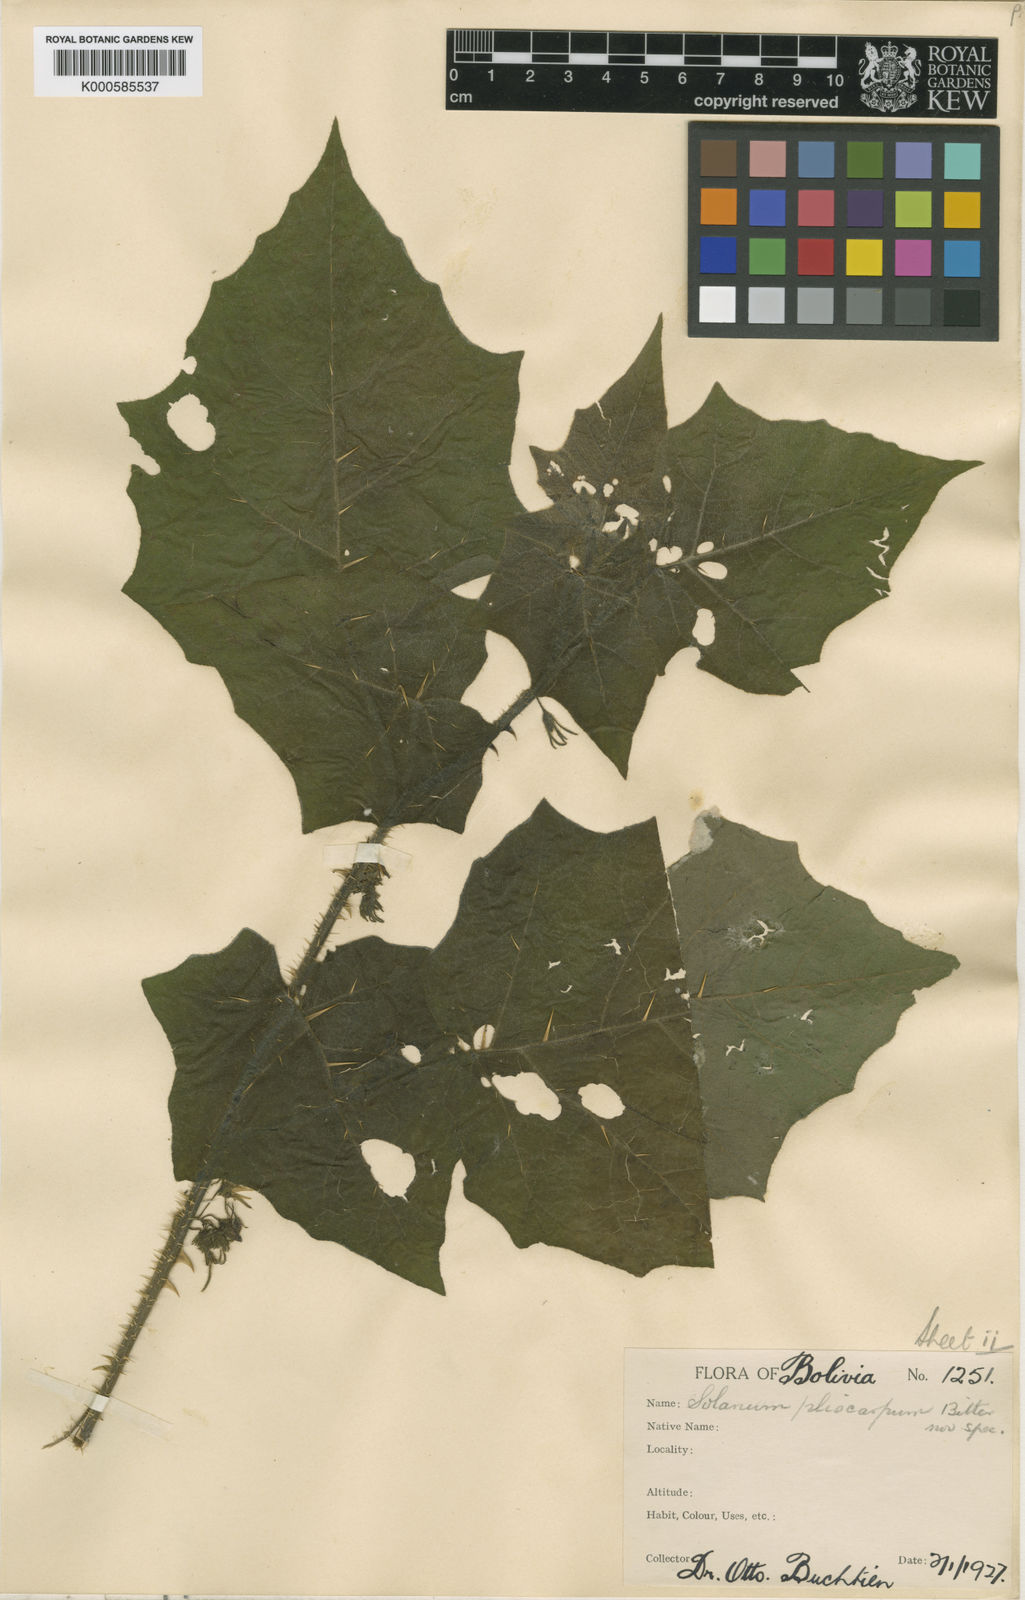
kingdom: Plantae
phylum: Tracheophyta
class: Magnoliopsida
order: Solanales
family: Solanaceae
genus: Solanum
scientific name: Solanum incarceratum
